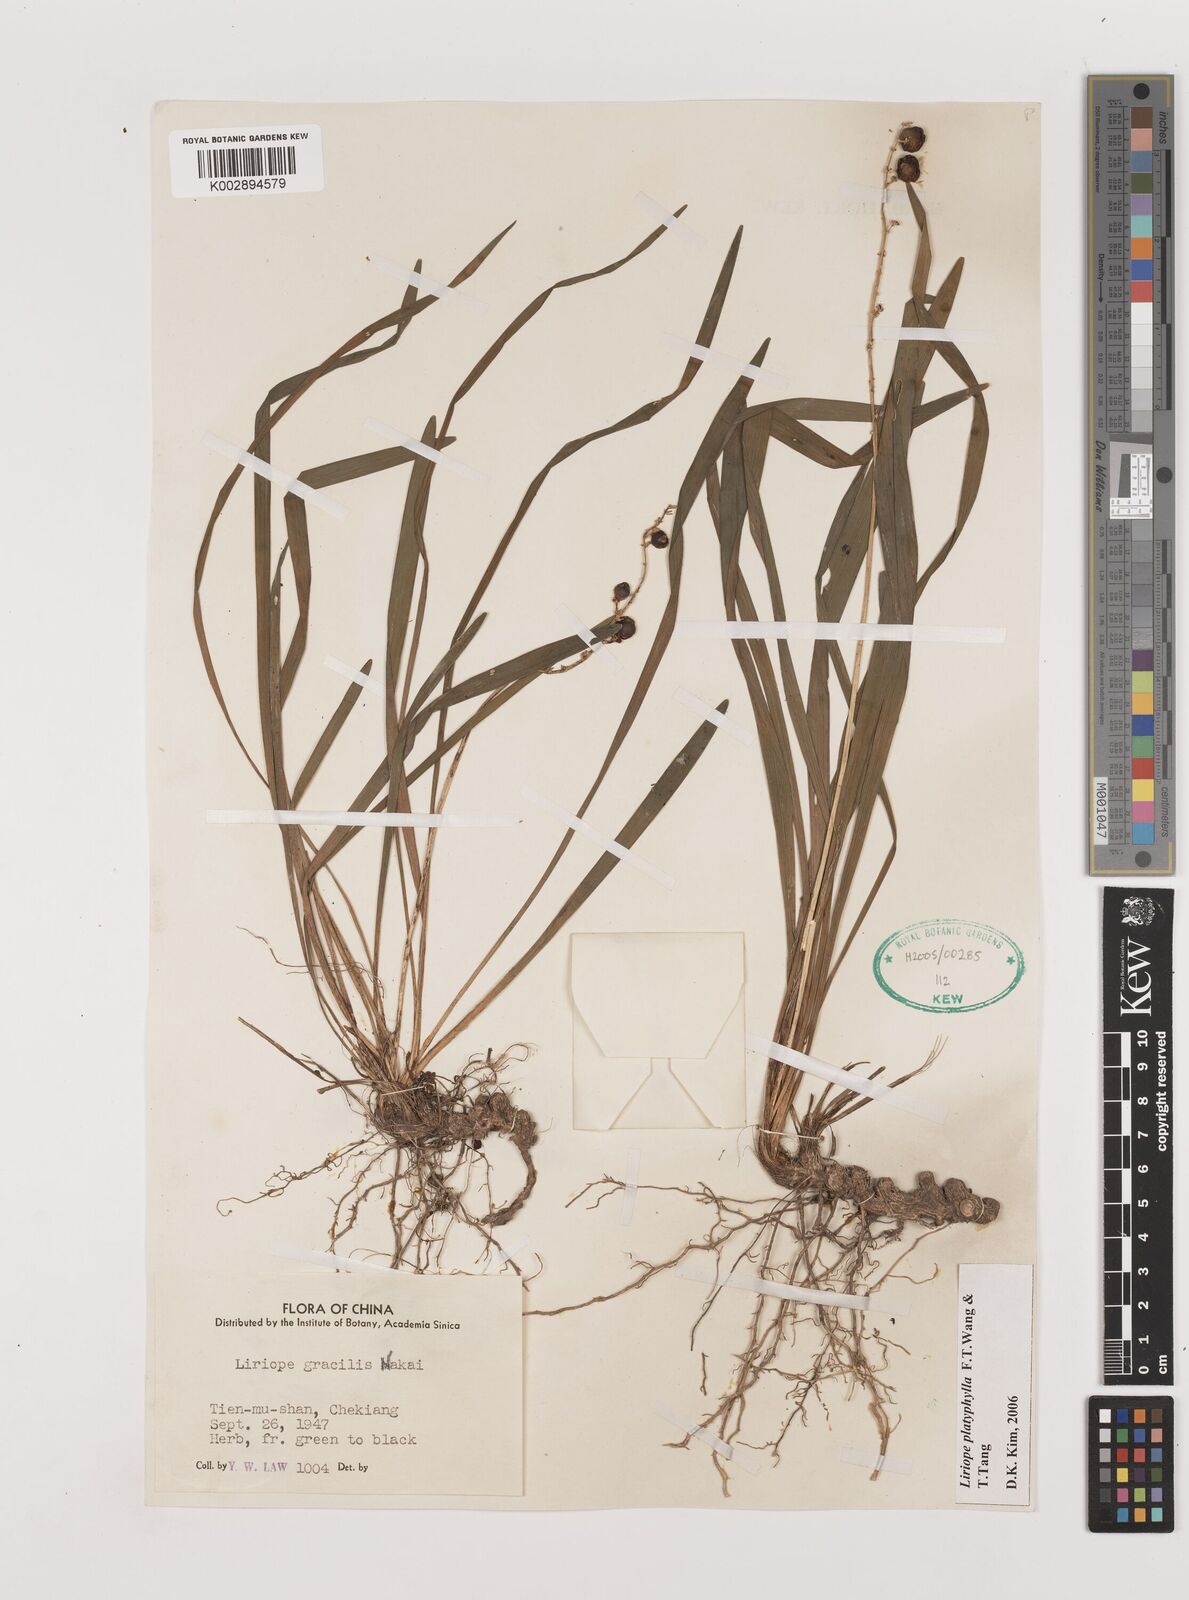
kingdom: Plantae
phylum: Tracheophyta
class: Liliopsida
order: Asparagales
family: Asparagaceae
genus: Liriope
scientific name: Liriope muscari
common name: Big blue lilyturf
